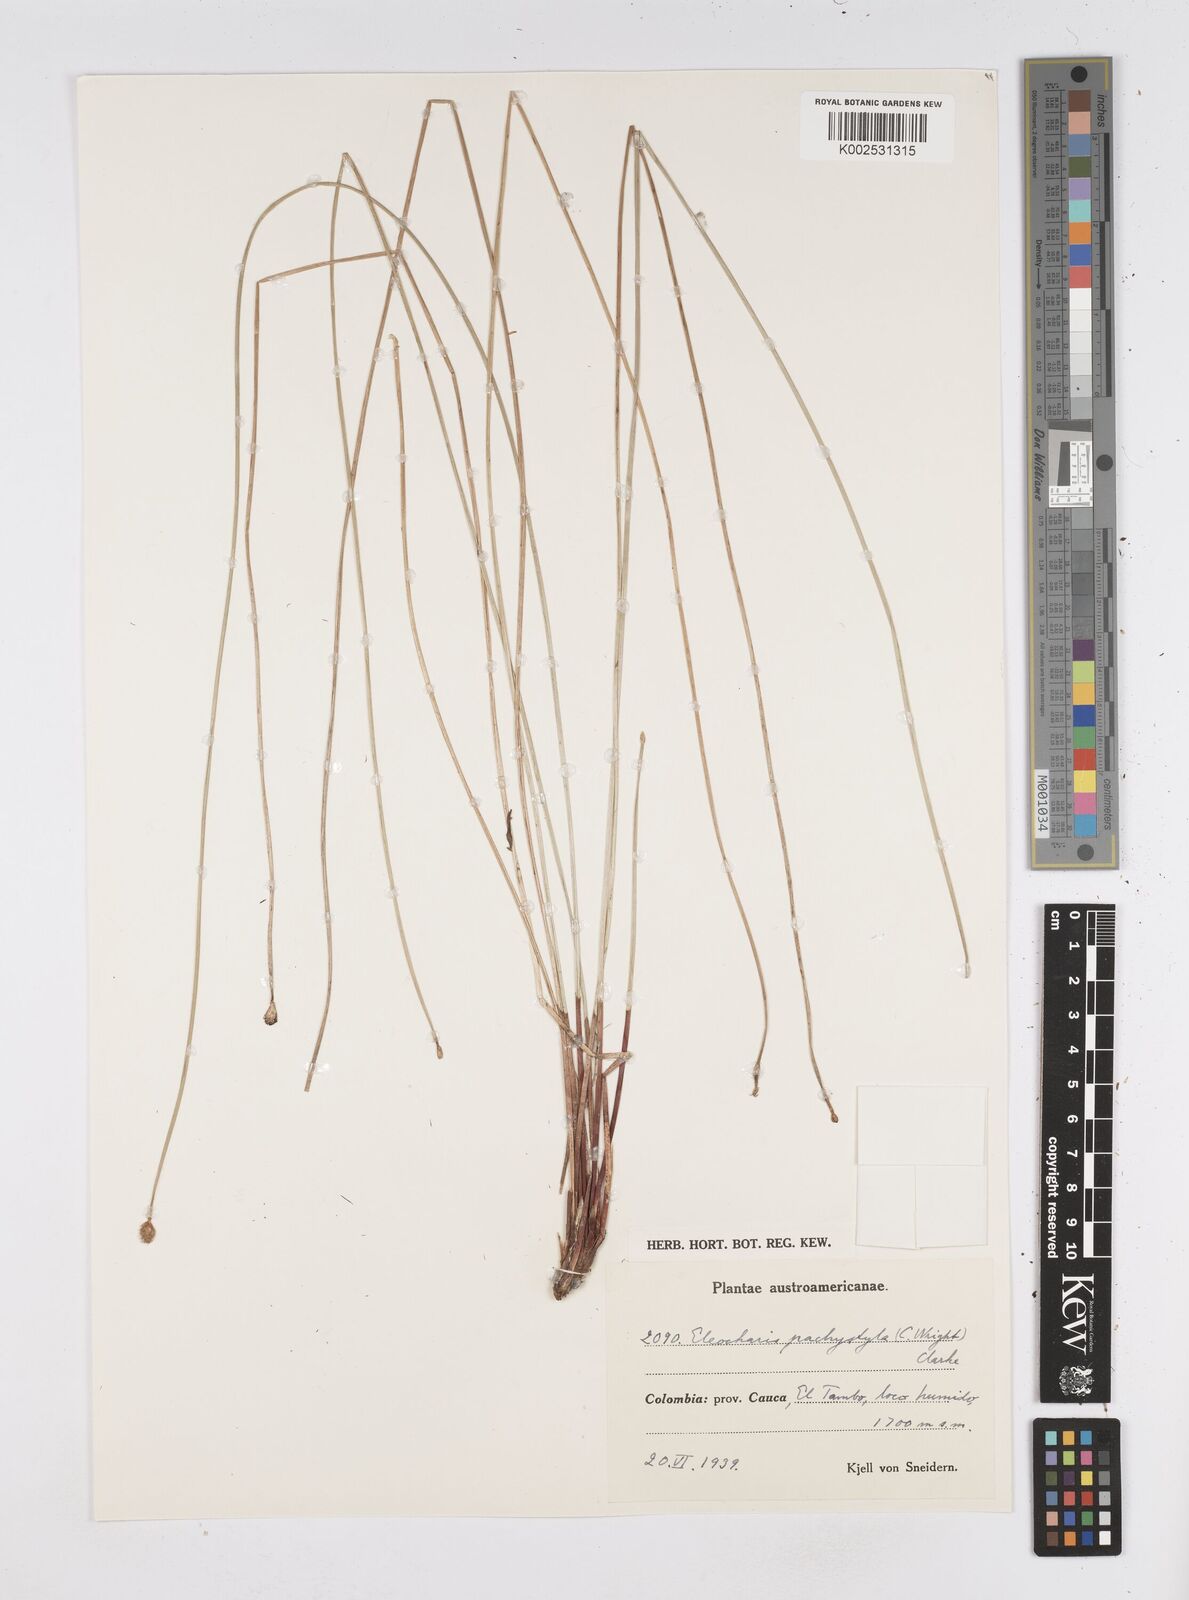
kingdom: Plantae
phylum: Tracheophyta
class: Liliopsida
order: Poales
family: Cyperaceae
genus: Eleocharis
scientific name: Eleocharis pachystyla
